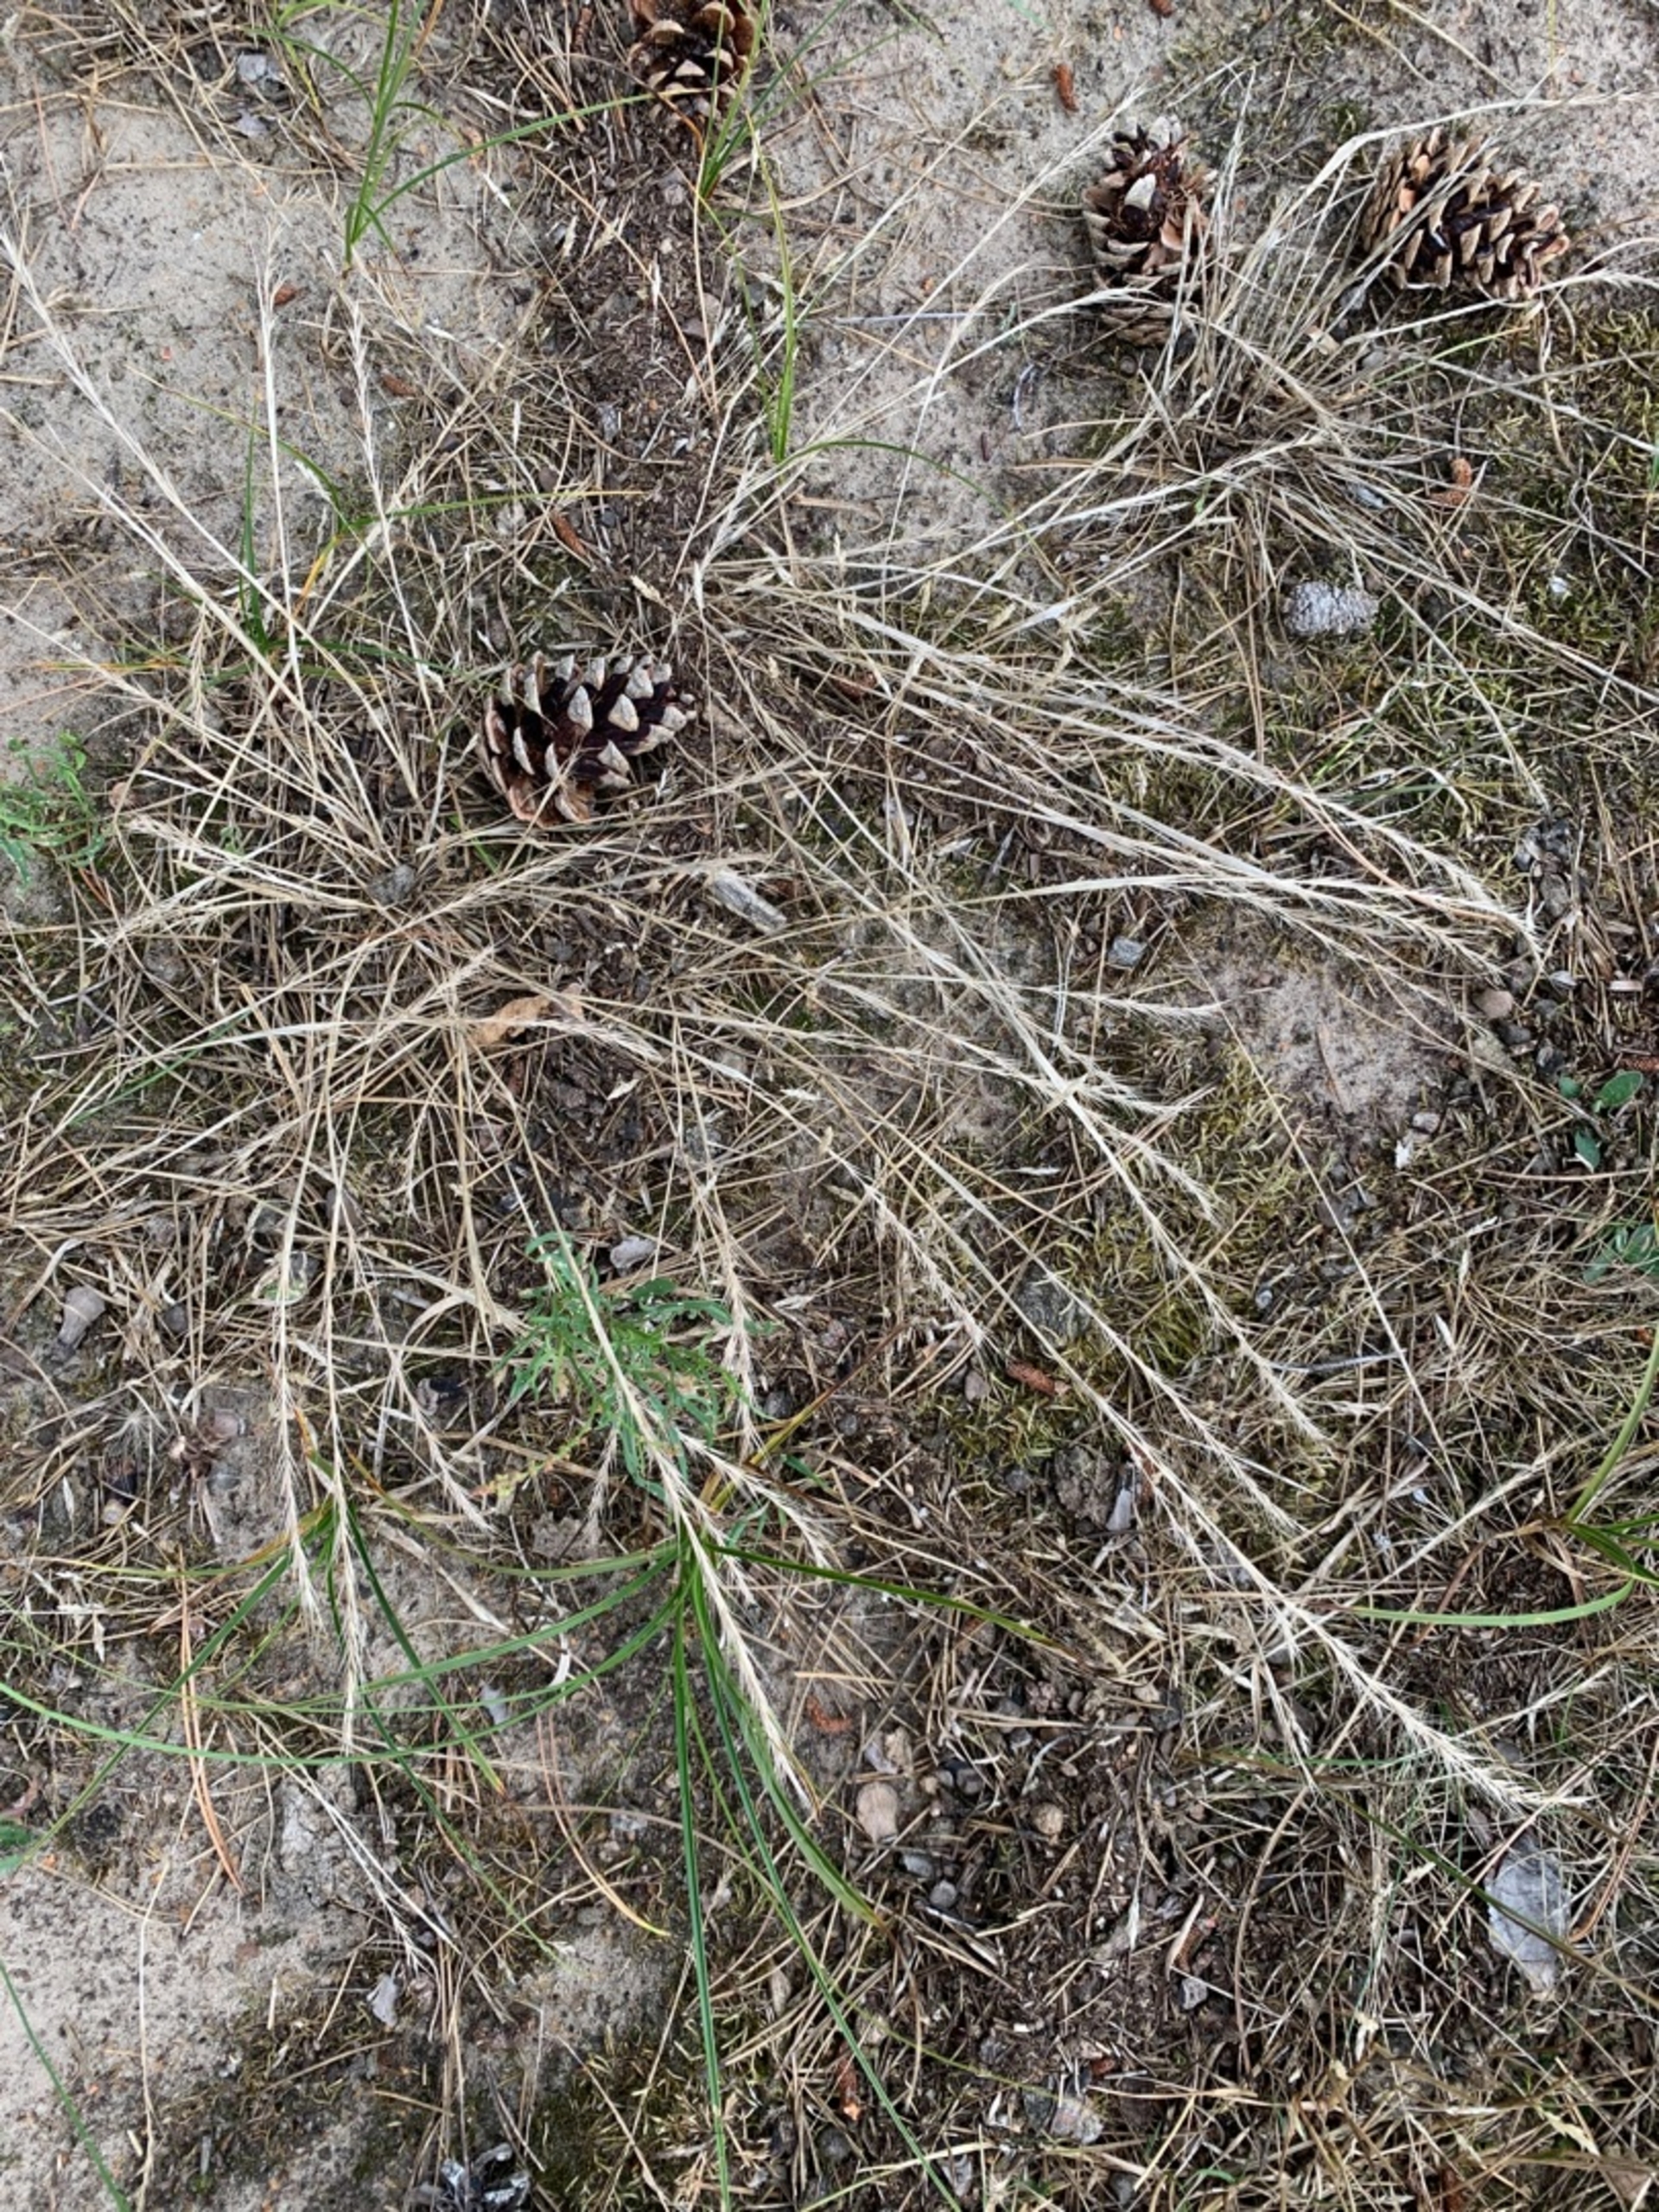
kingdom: Plantae
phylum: Tracheophyta
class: Liliopsida
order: Poales
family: Poaceae
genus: Festuca
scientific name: Festuca bromoides
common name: Langstakket væselhale
